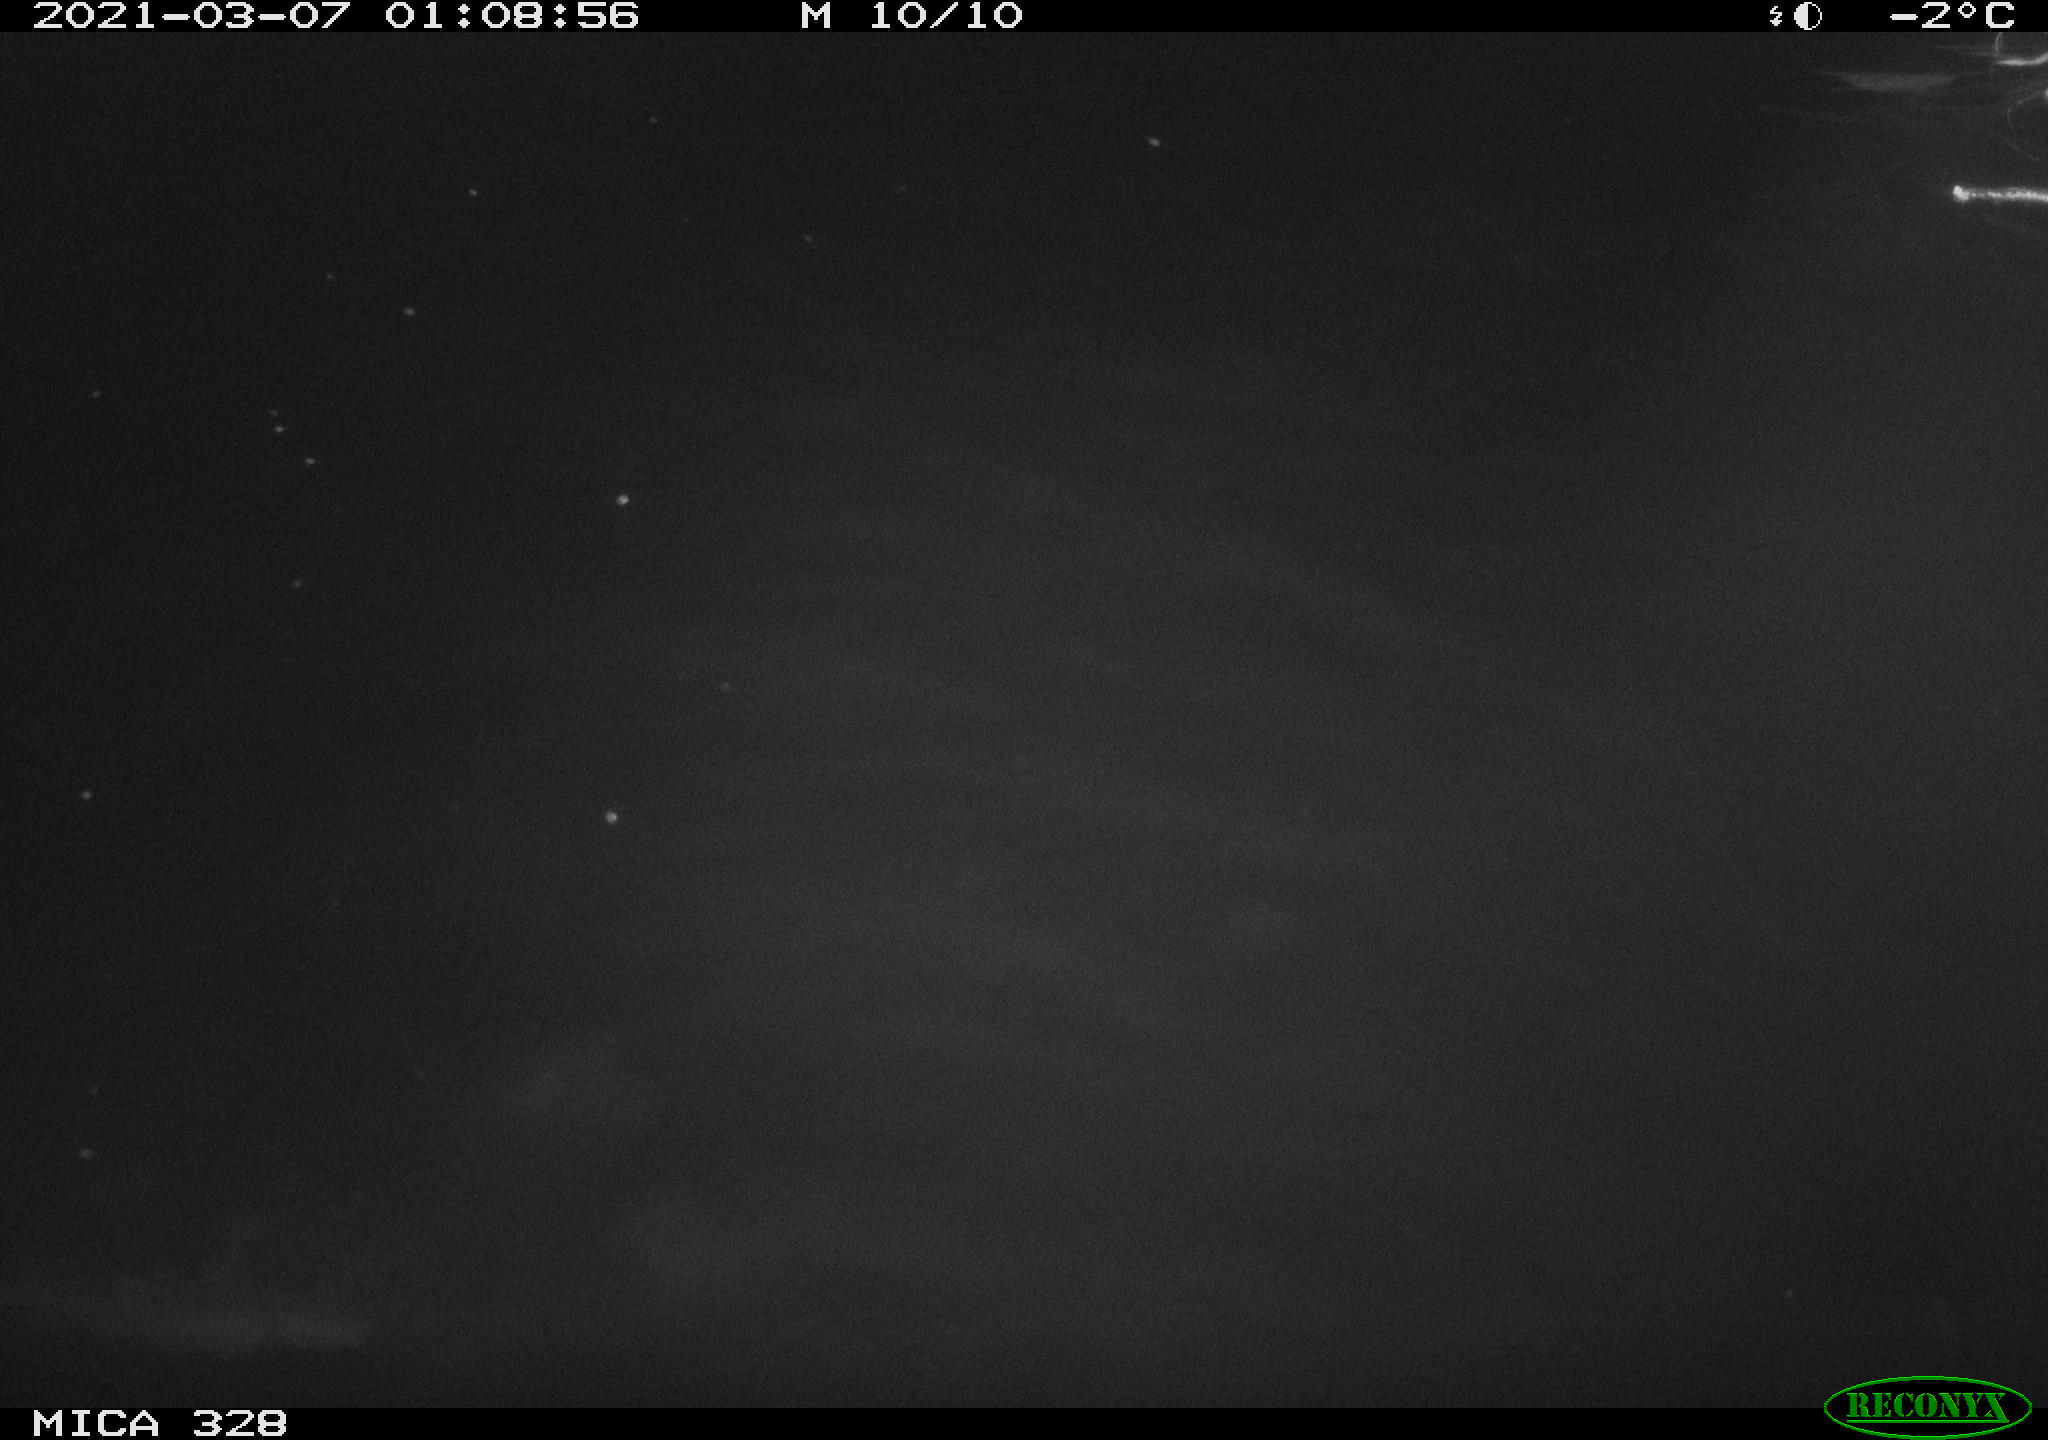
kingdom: Animalia
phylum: Chordata
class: Mammalia
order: Rodentia
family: Cricetidae
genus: Ondatra
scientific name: Ondatra zibethicus
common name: Muskrat
